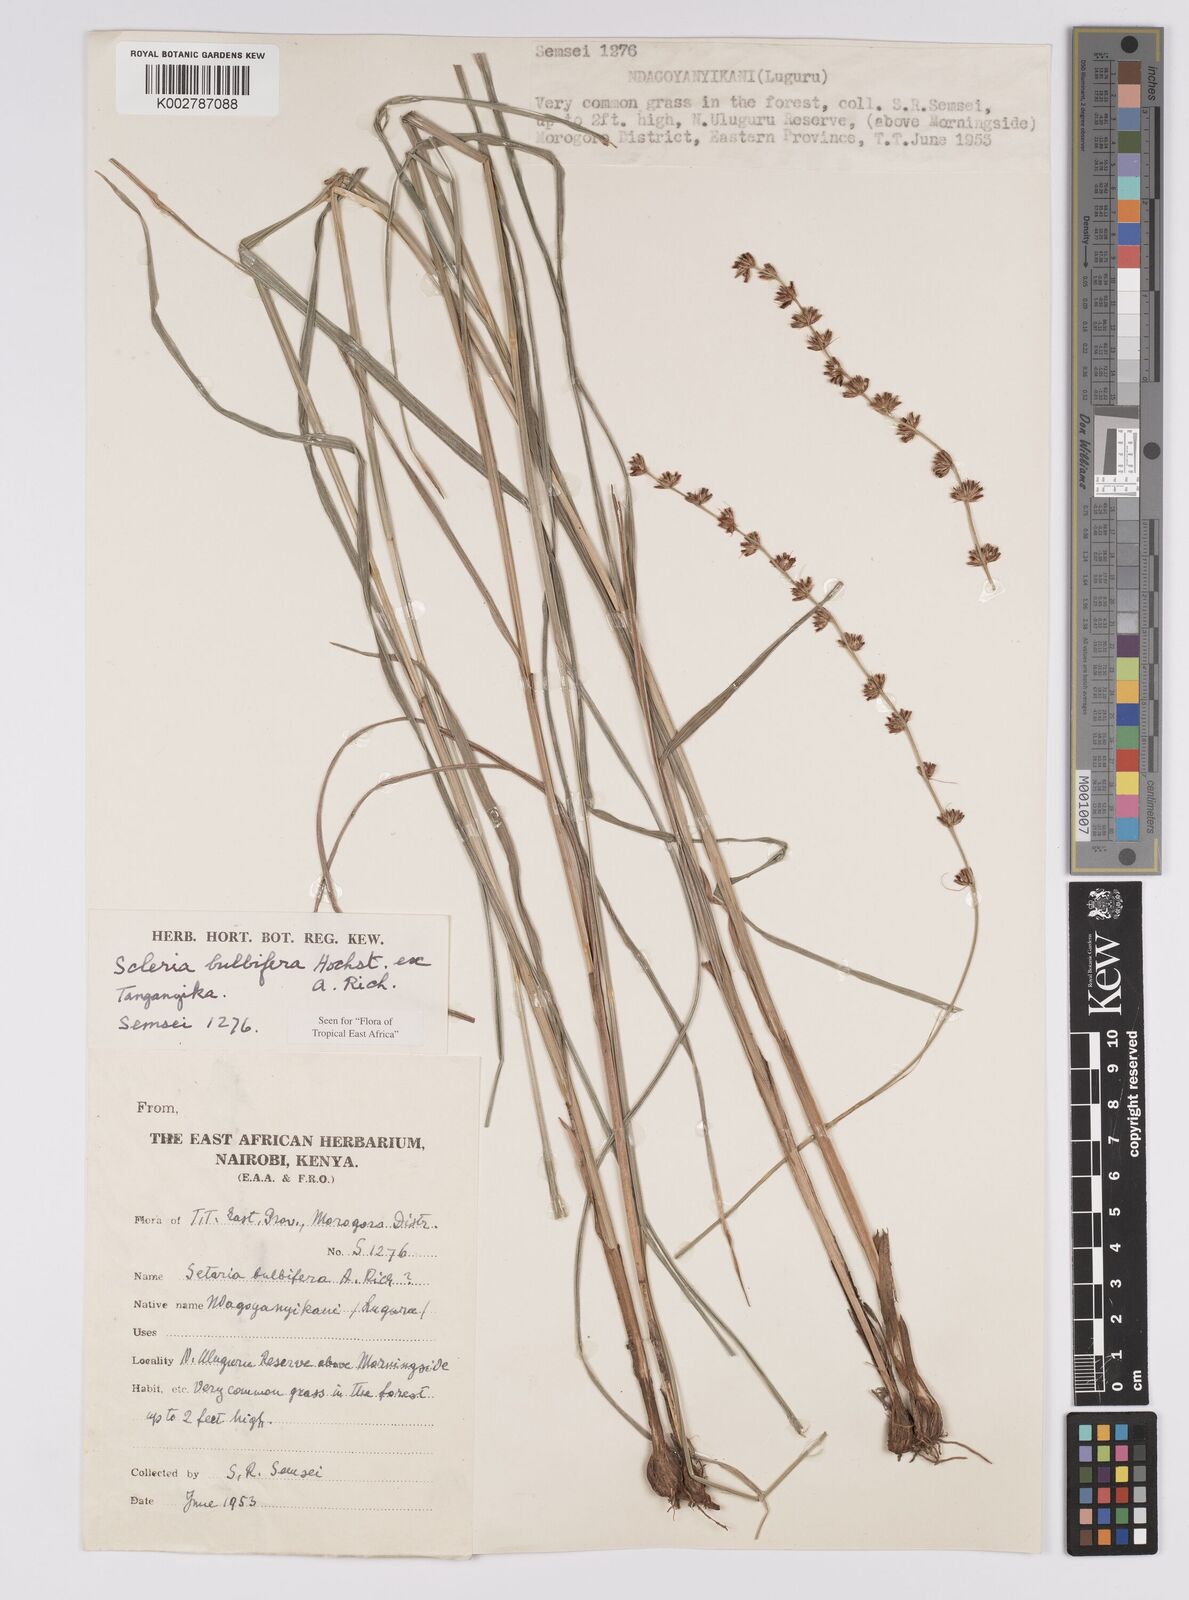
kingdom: Plantae
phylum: Tracheophyta
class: Liliopsida
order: Poales
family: Cyperaceae
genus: Scleria
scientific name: Scleria bulbifera
